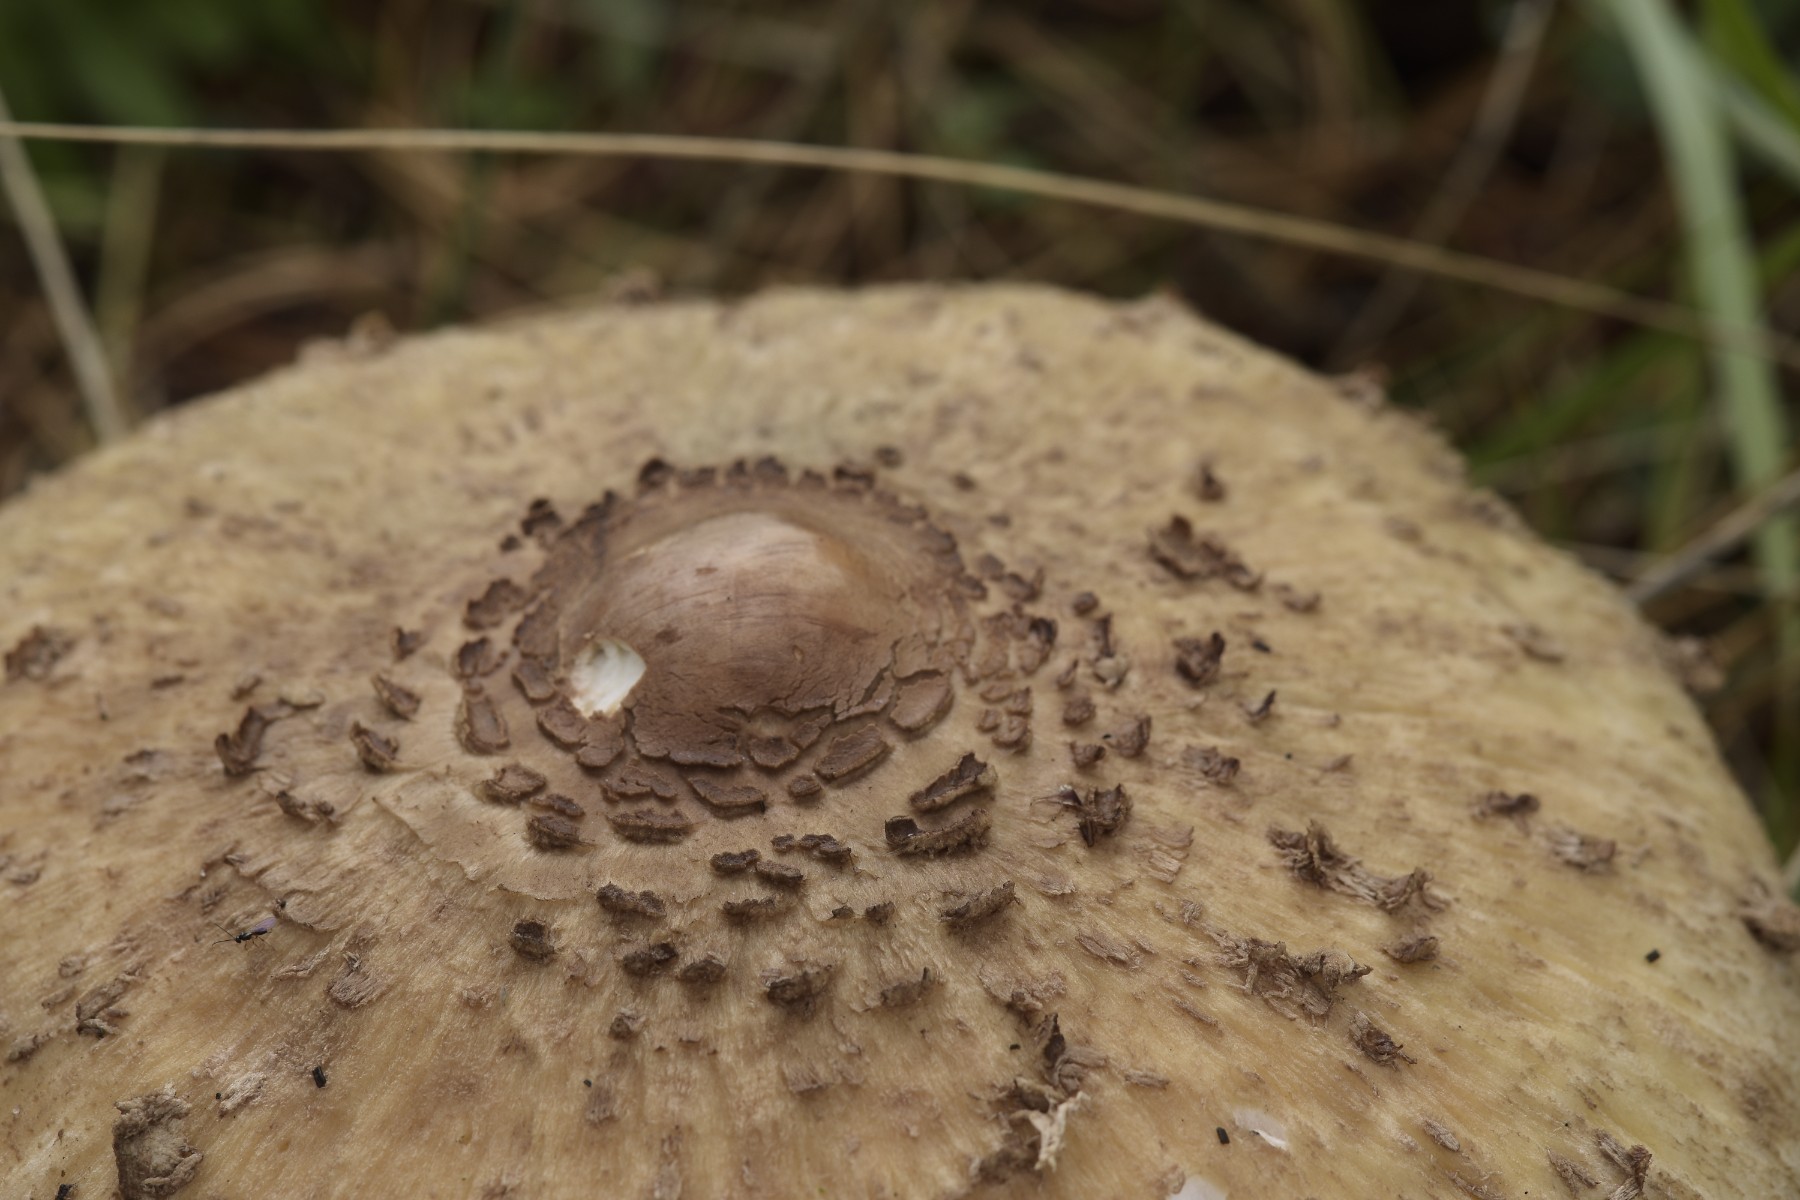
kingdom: Fungi
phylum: Basidiomycota
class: Agaricomycetes
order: Agaricales
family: Agaricaceae
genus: Macrolepiota
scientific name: Macrolepiota procera
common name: stor kæmpeparasolhat
